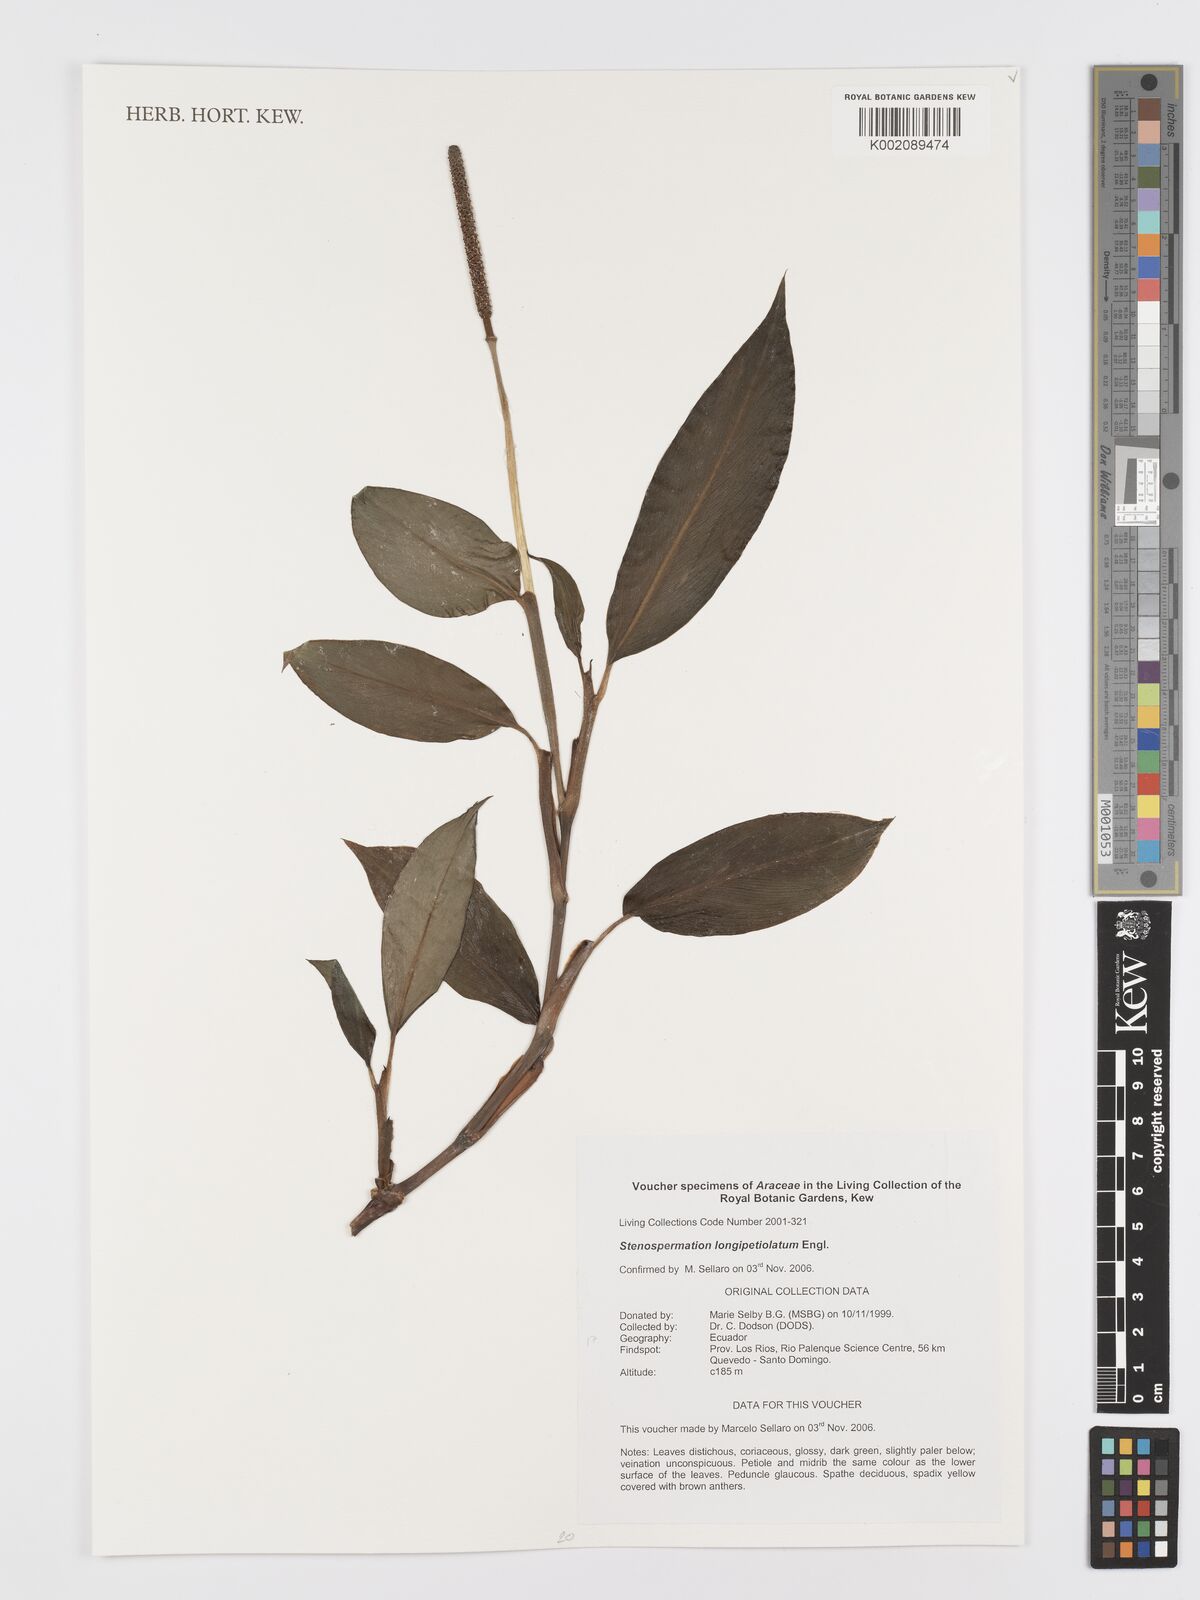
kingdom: Plantae
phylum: Tracheophyta
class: Liliopsida
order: Alismatales
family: Araceae
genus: Stenospermation
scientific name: Stenospermation longifolium
